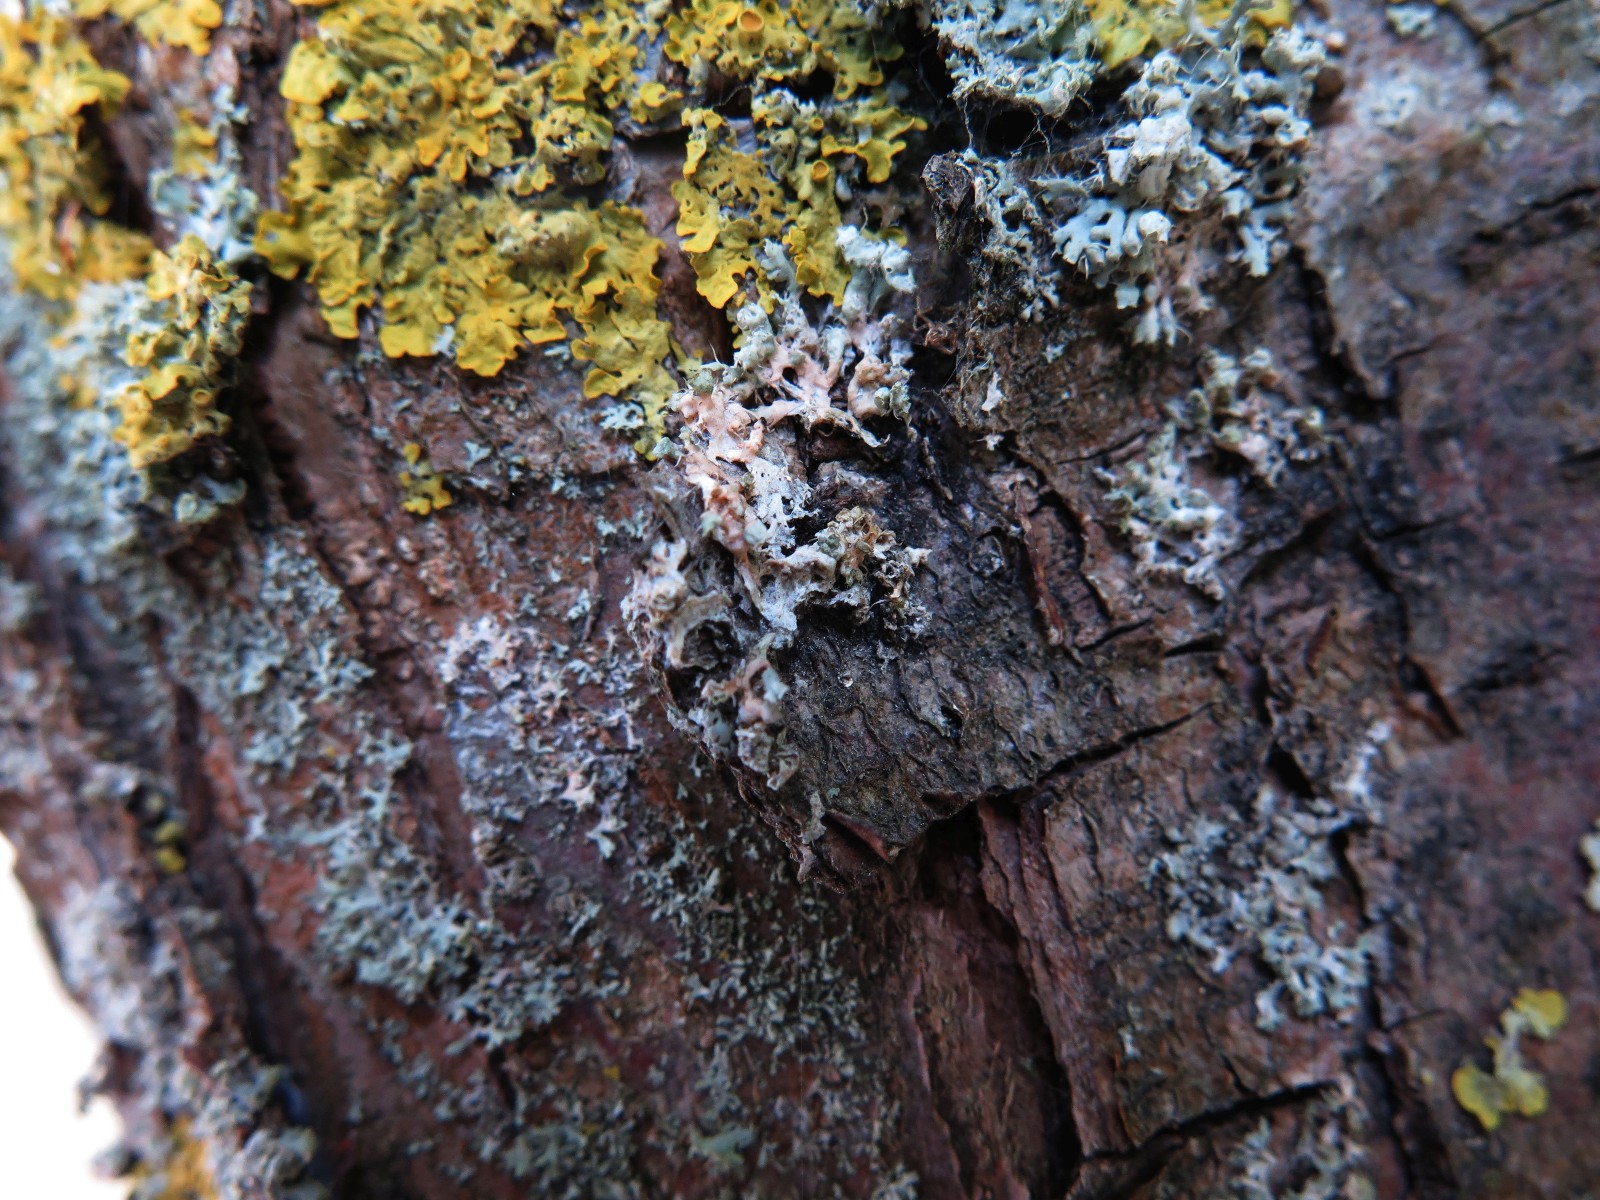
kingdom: Fungi
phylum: Basidiomycota
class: Agaricomycetes
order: Corticiales
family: Corticiaceae
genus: Erythricium
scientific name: Erythricium aurantiacum
